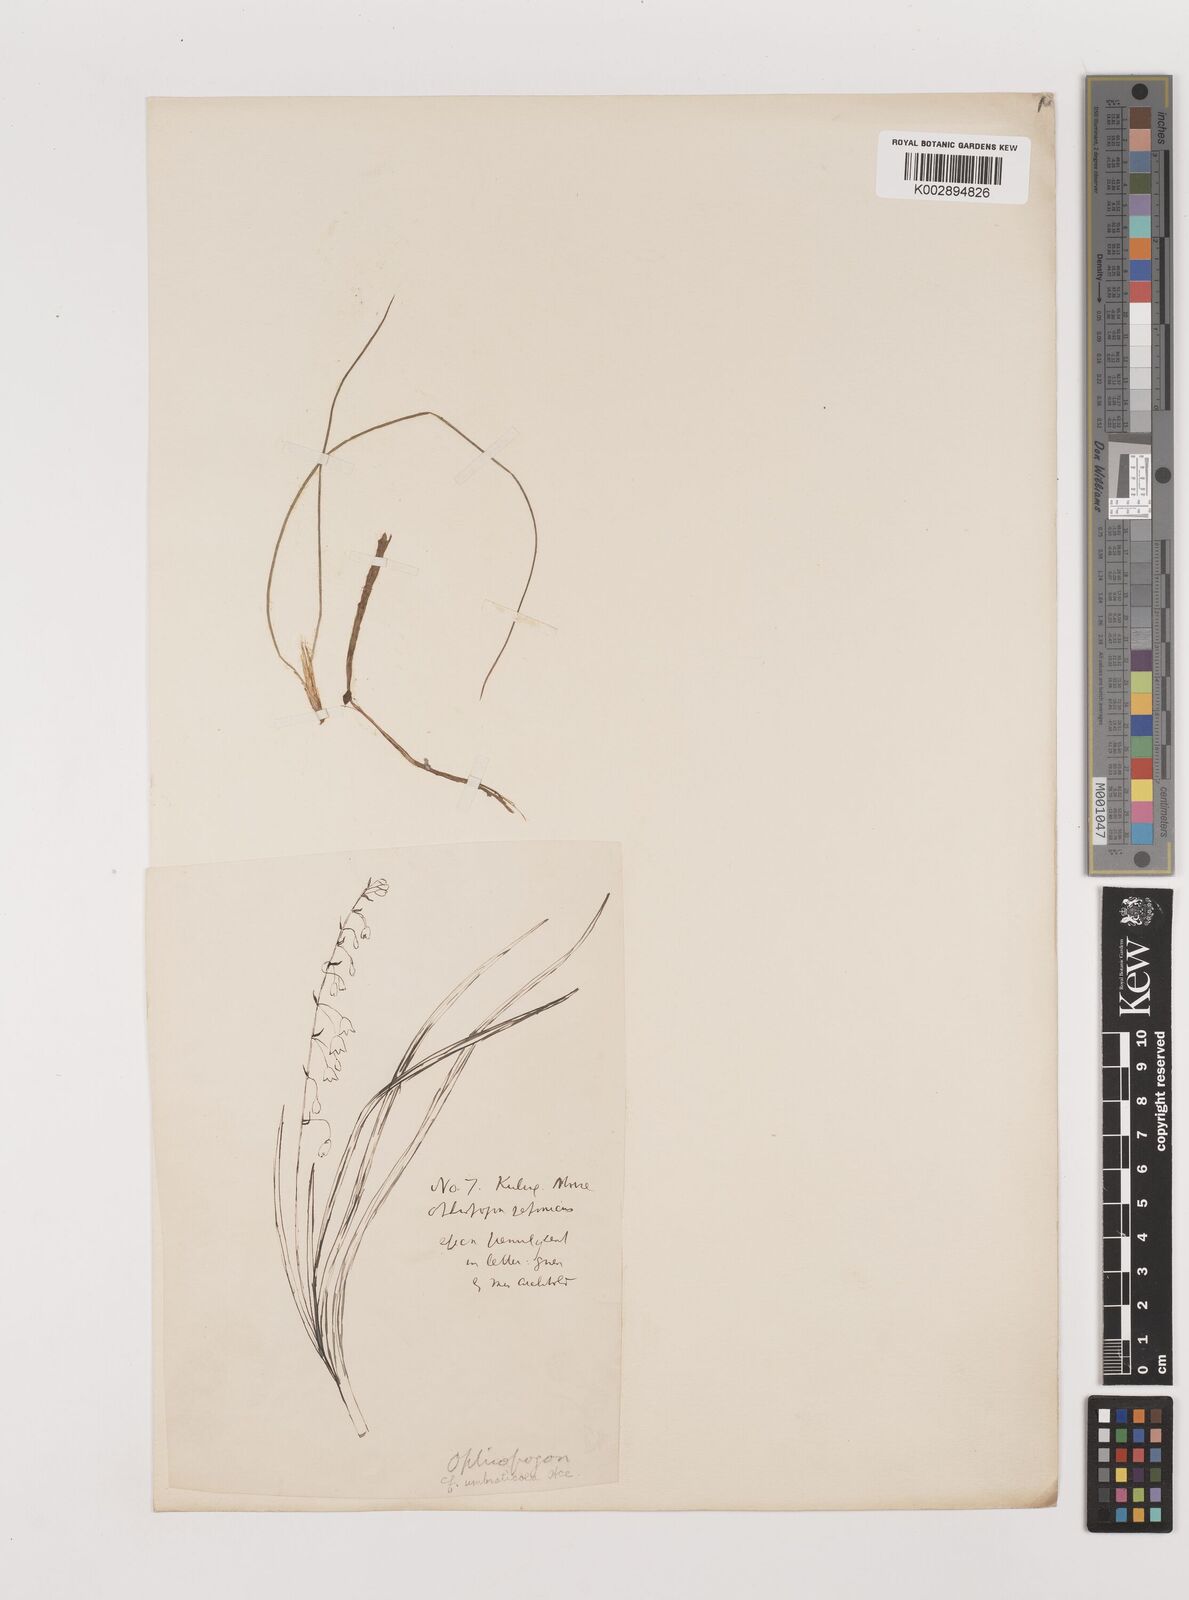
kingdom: Plantae
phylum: Tracheophyta
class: Liliopsida
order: Asparagales
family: Asparagaceae
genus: Ophiopogon
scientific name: Ophiopogon umbraticola
